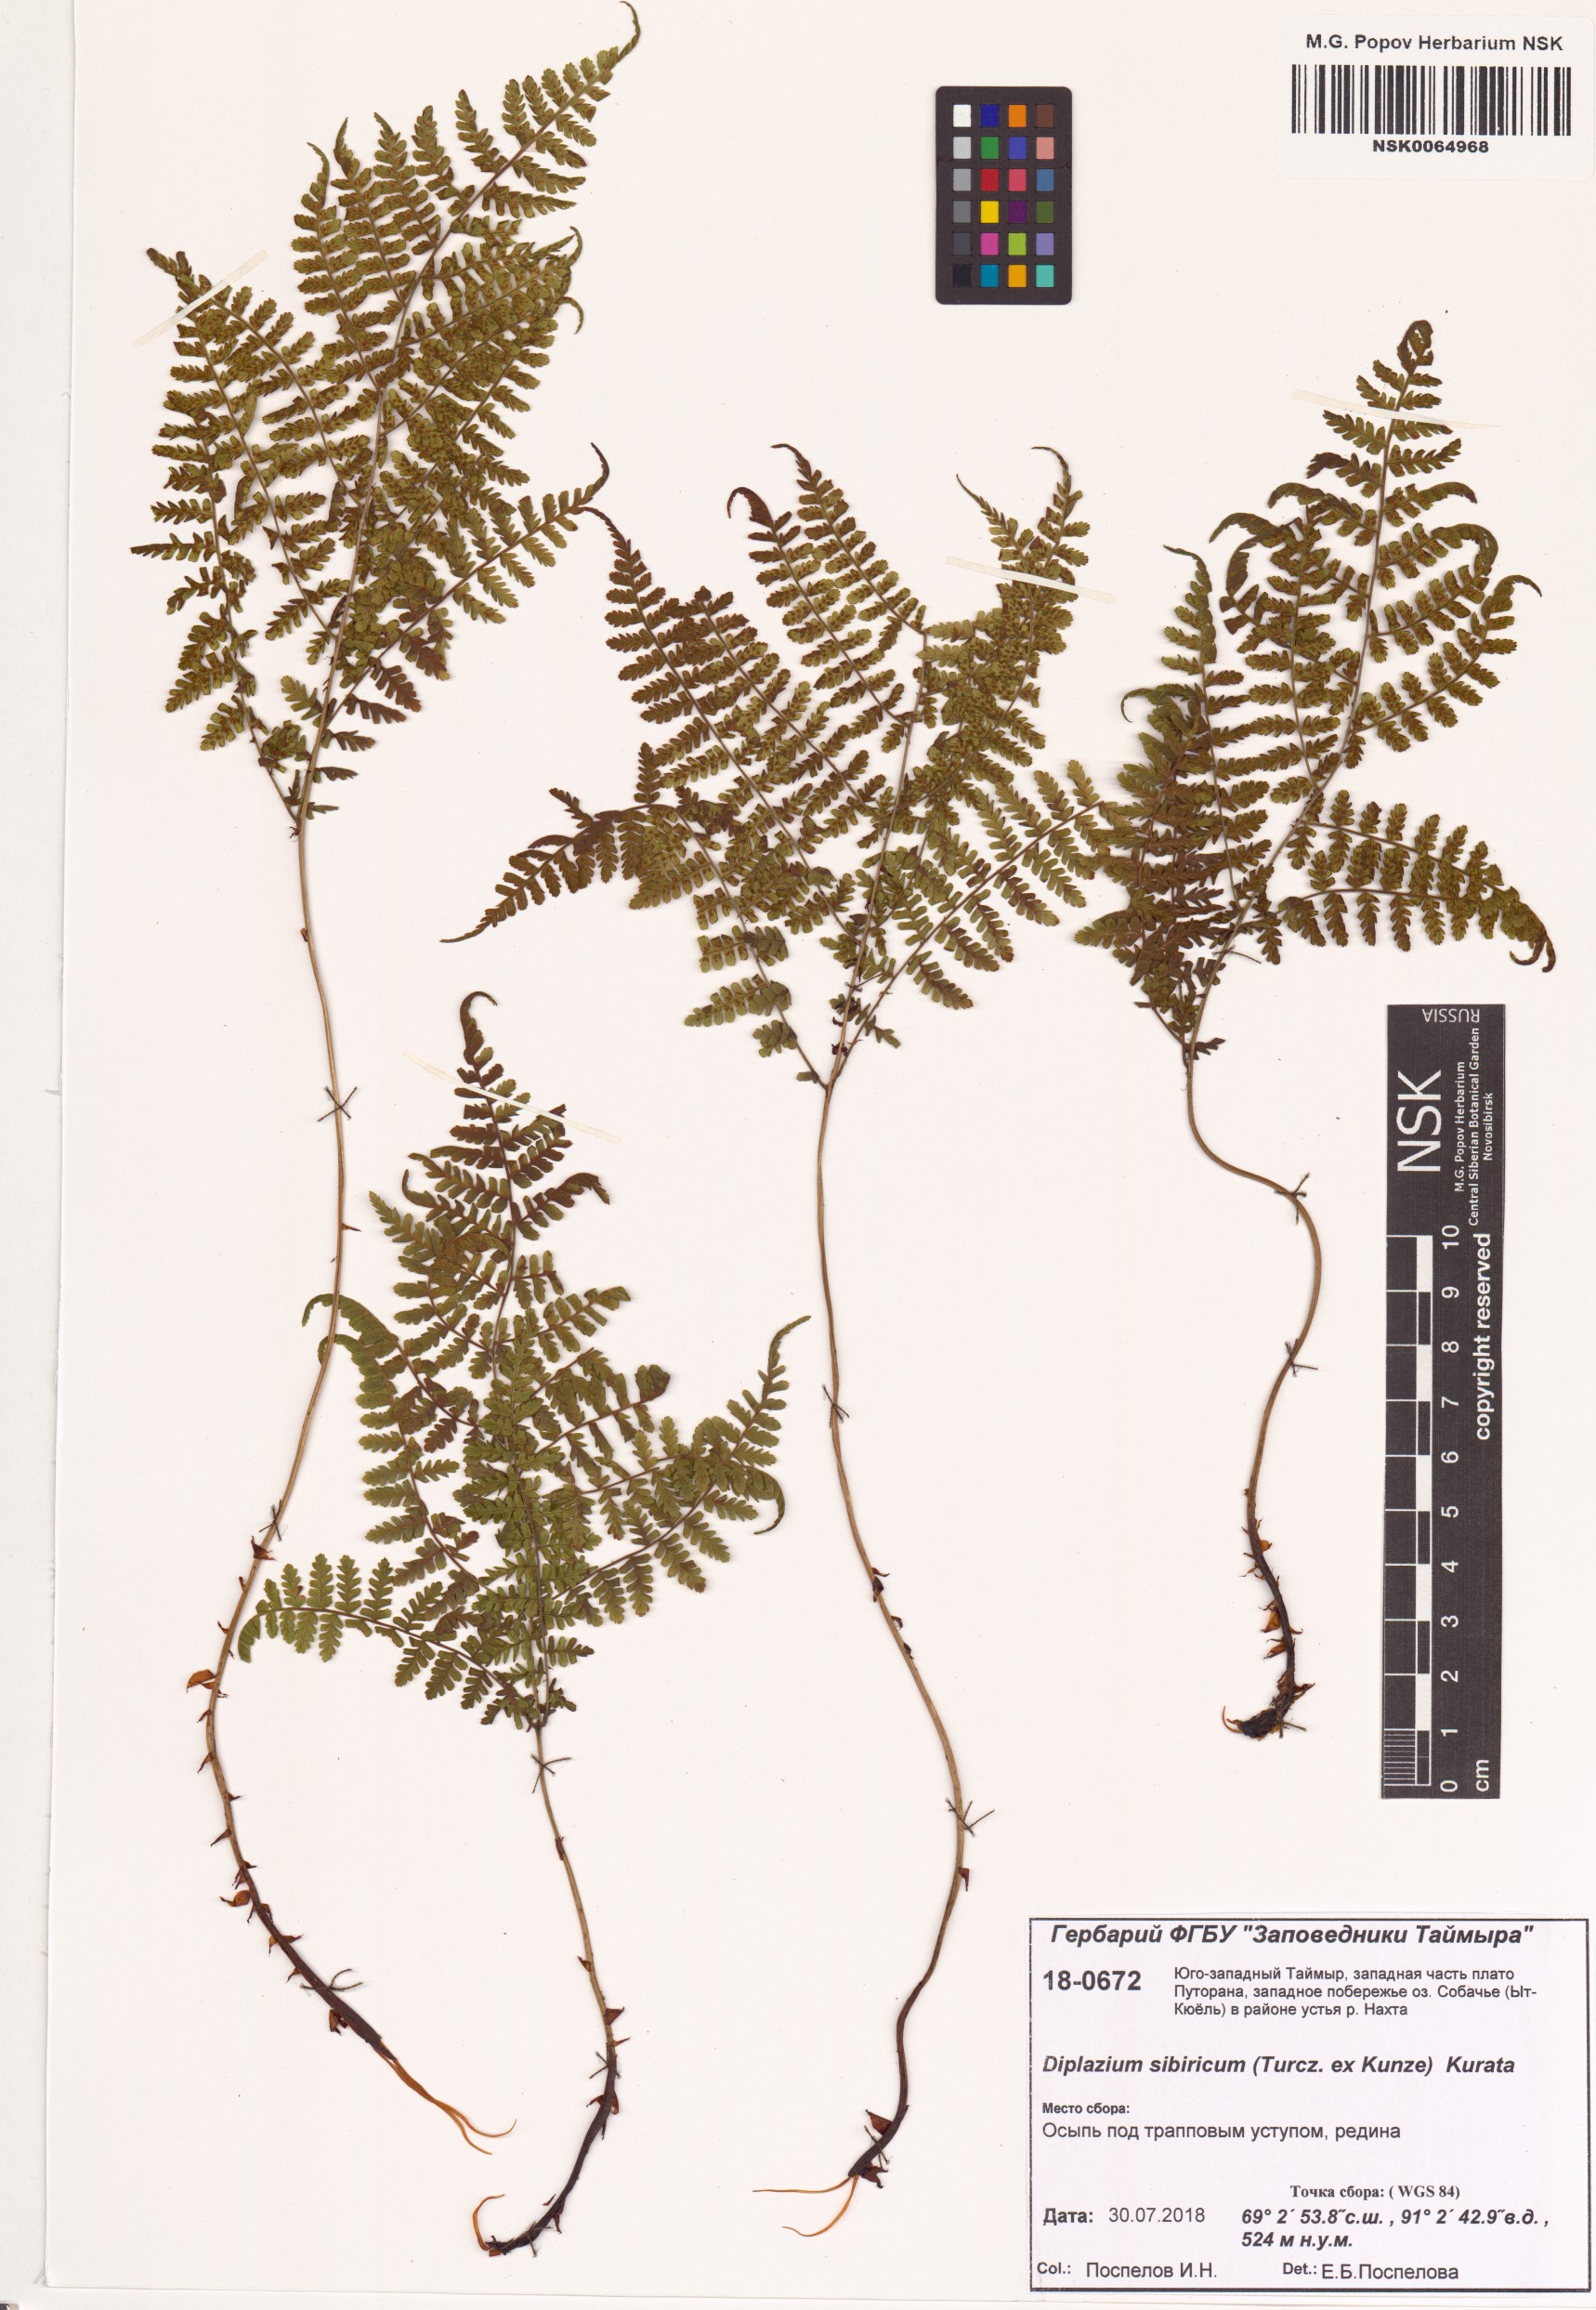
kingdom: Plantae
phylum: Tracheophyta
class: Polypodiopsida
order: Polypodiales
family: Athyriaceae
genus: Diplazium
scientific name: Diplazium sibiricum
